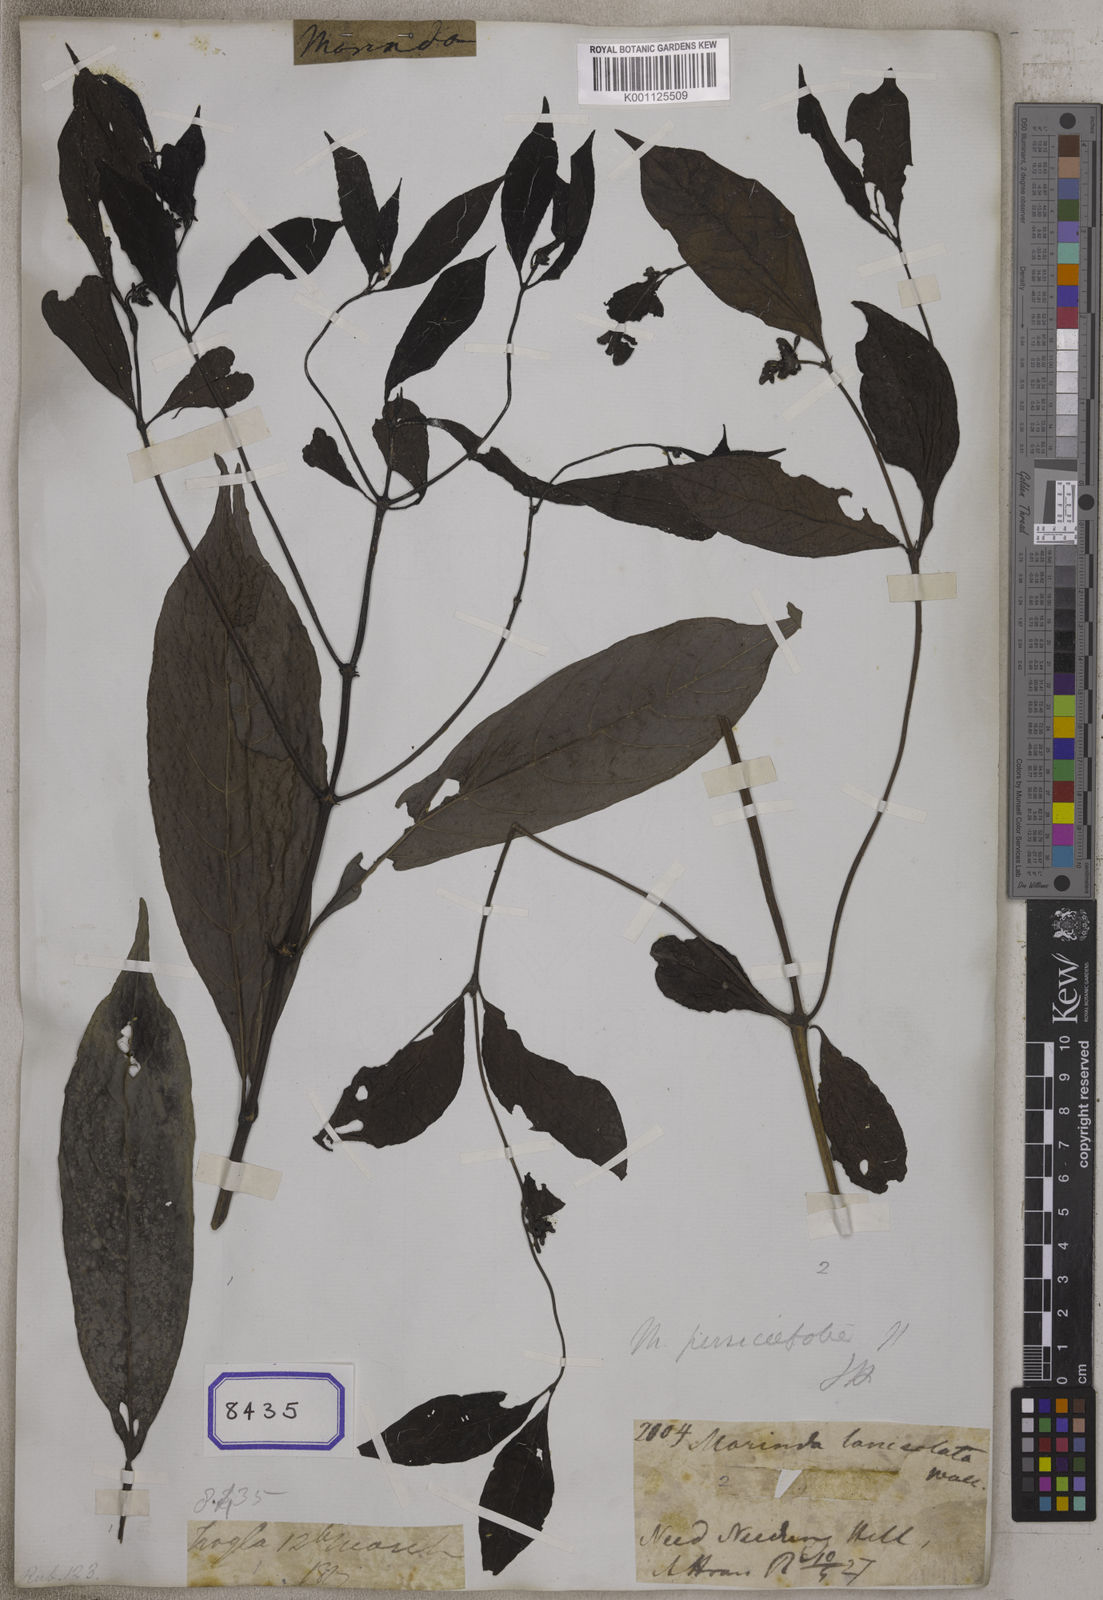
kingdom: Plantae
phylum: Tracheophyta
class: Magnoliopsida
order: Gentianales
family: Rubiaceae
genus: Morinda
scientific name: Morinda persicifolia
